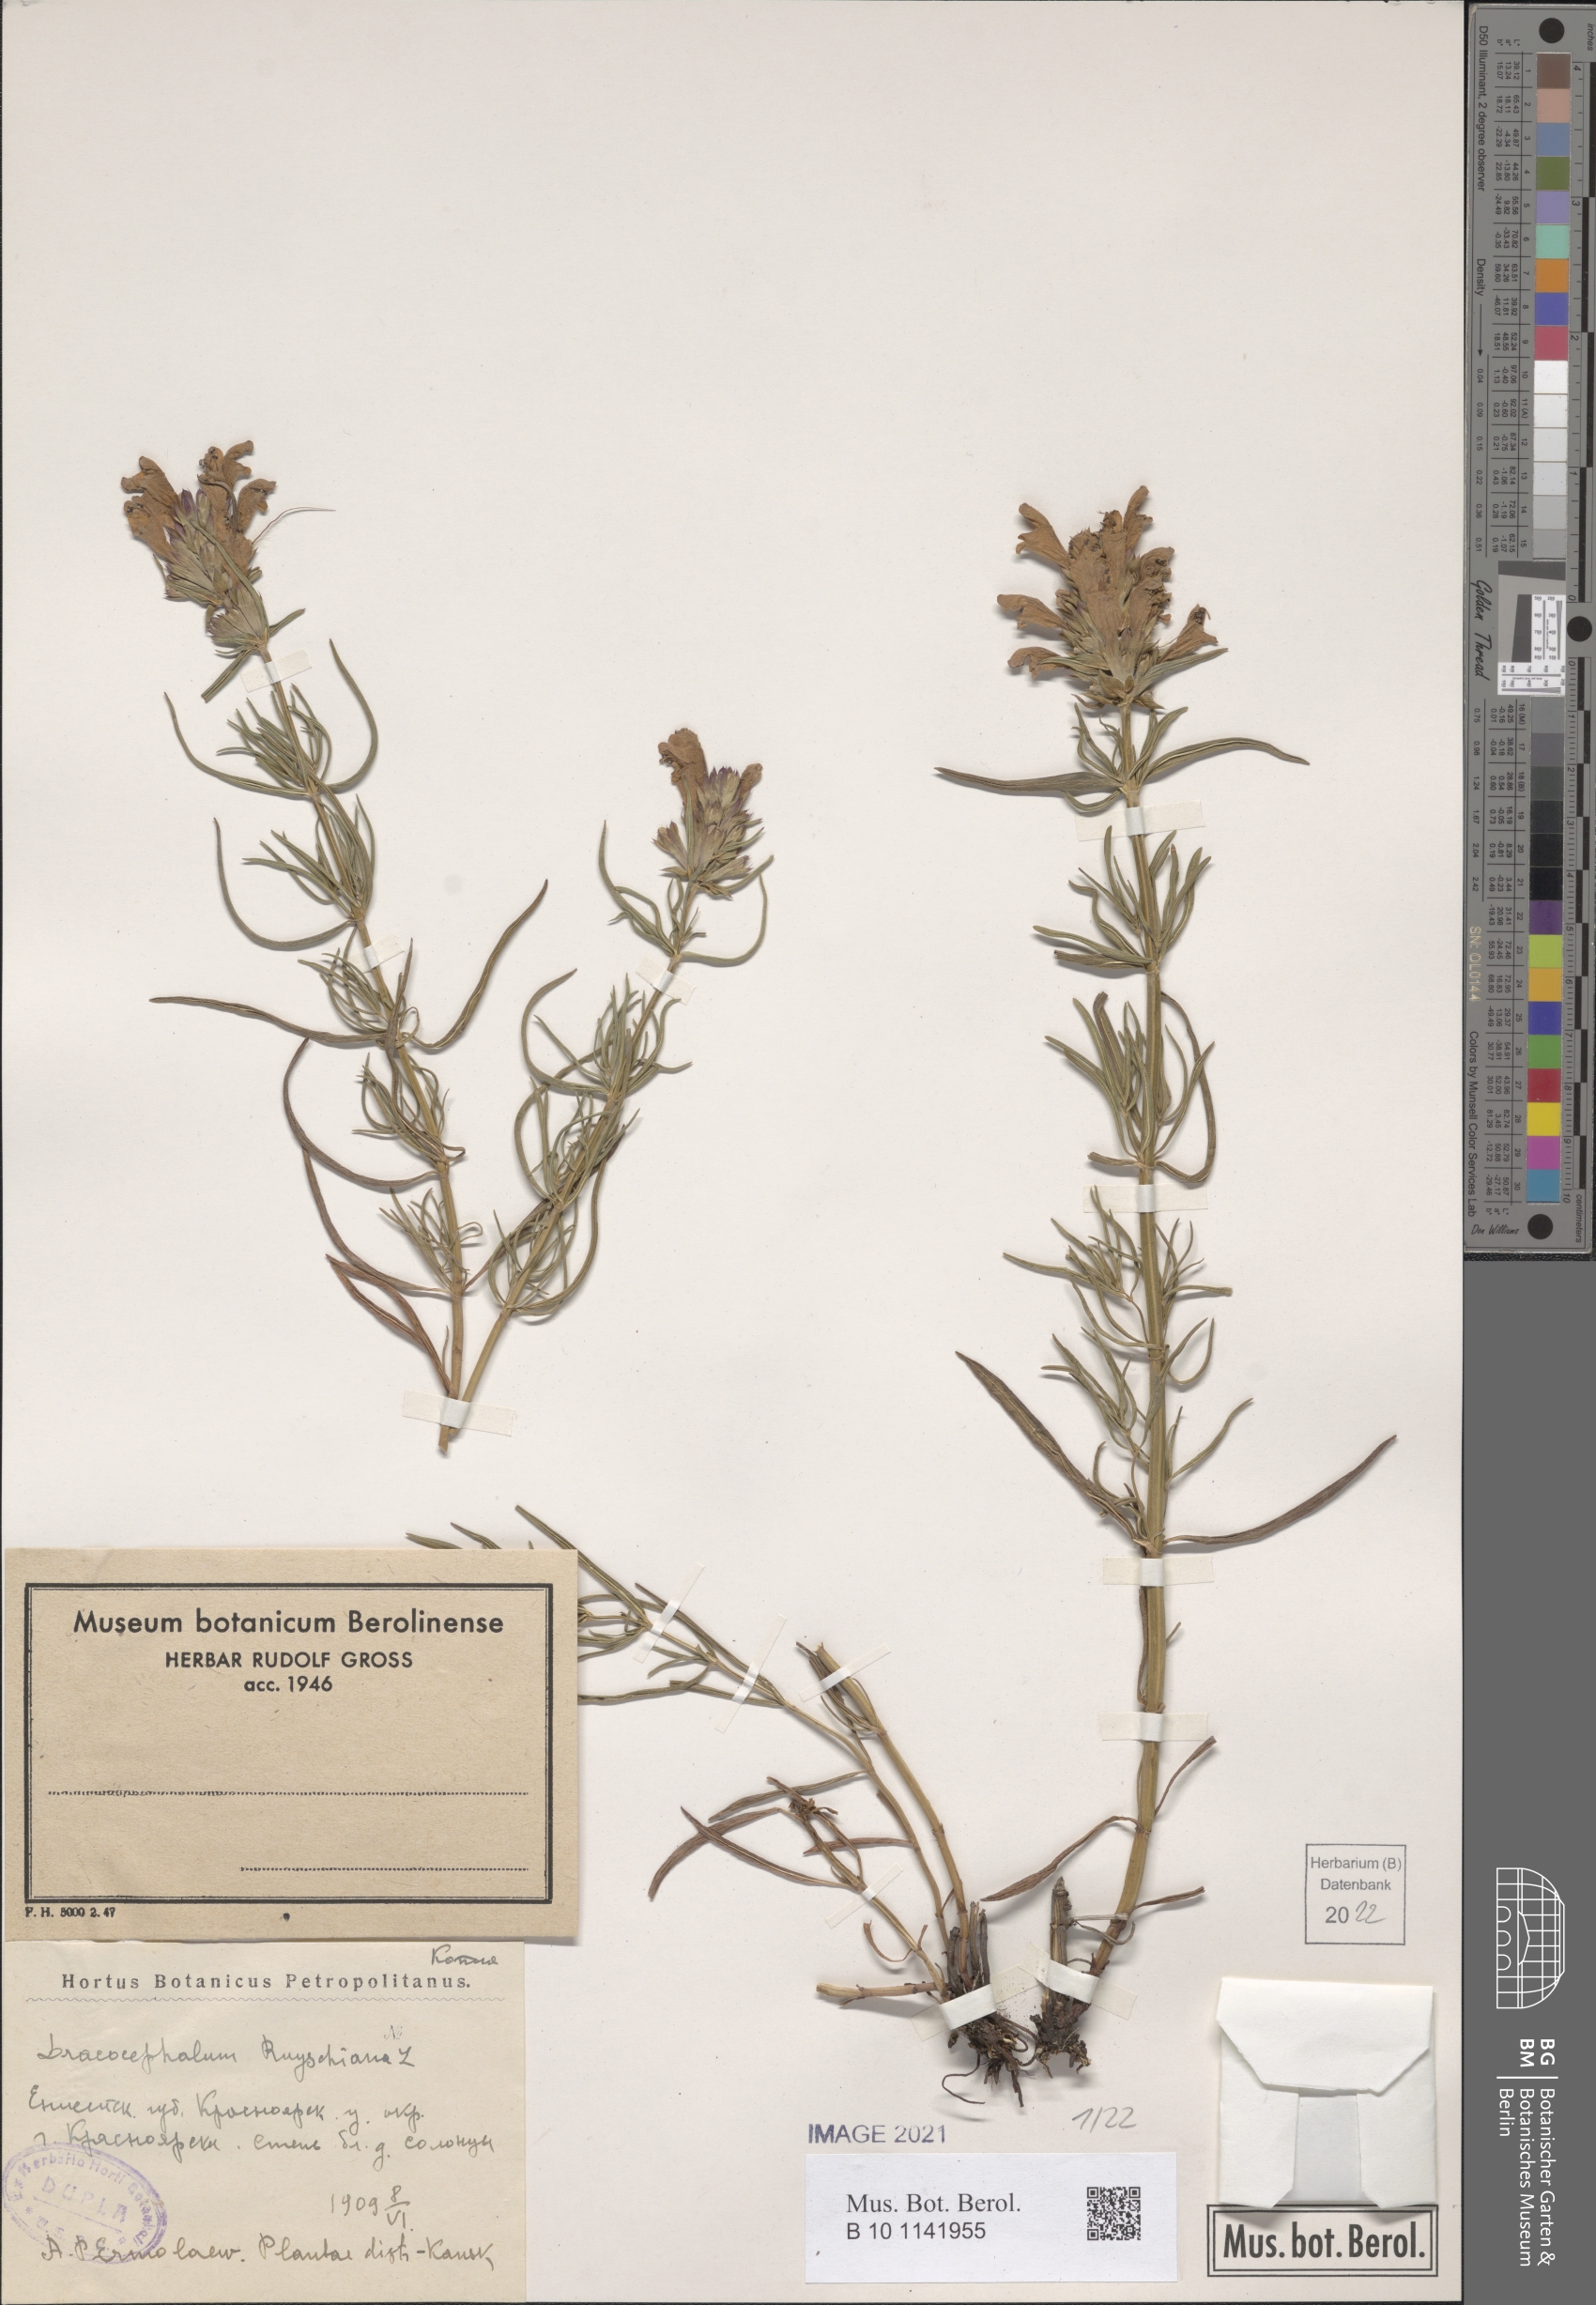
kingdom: Plantae
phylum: Tracheophyta
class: Magnoliopsida
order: Lamiales
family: Lamiaceae
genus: Dracocephalum
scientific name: Dracocephalum ruyschiana
